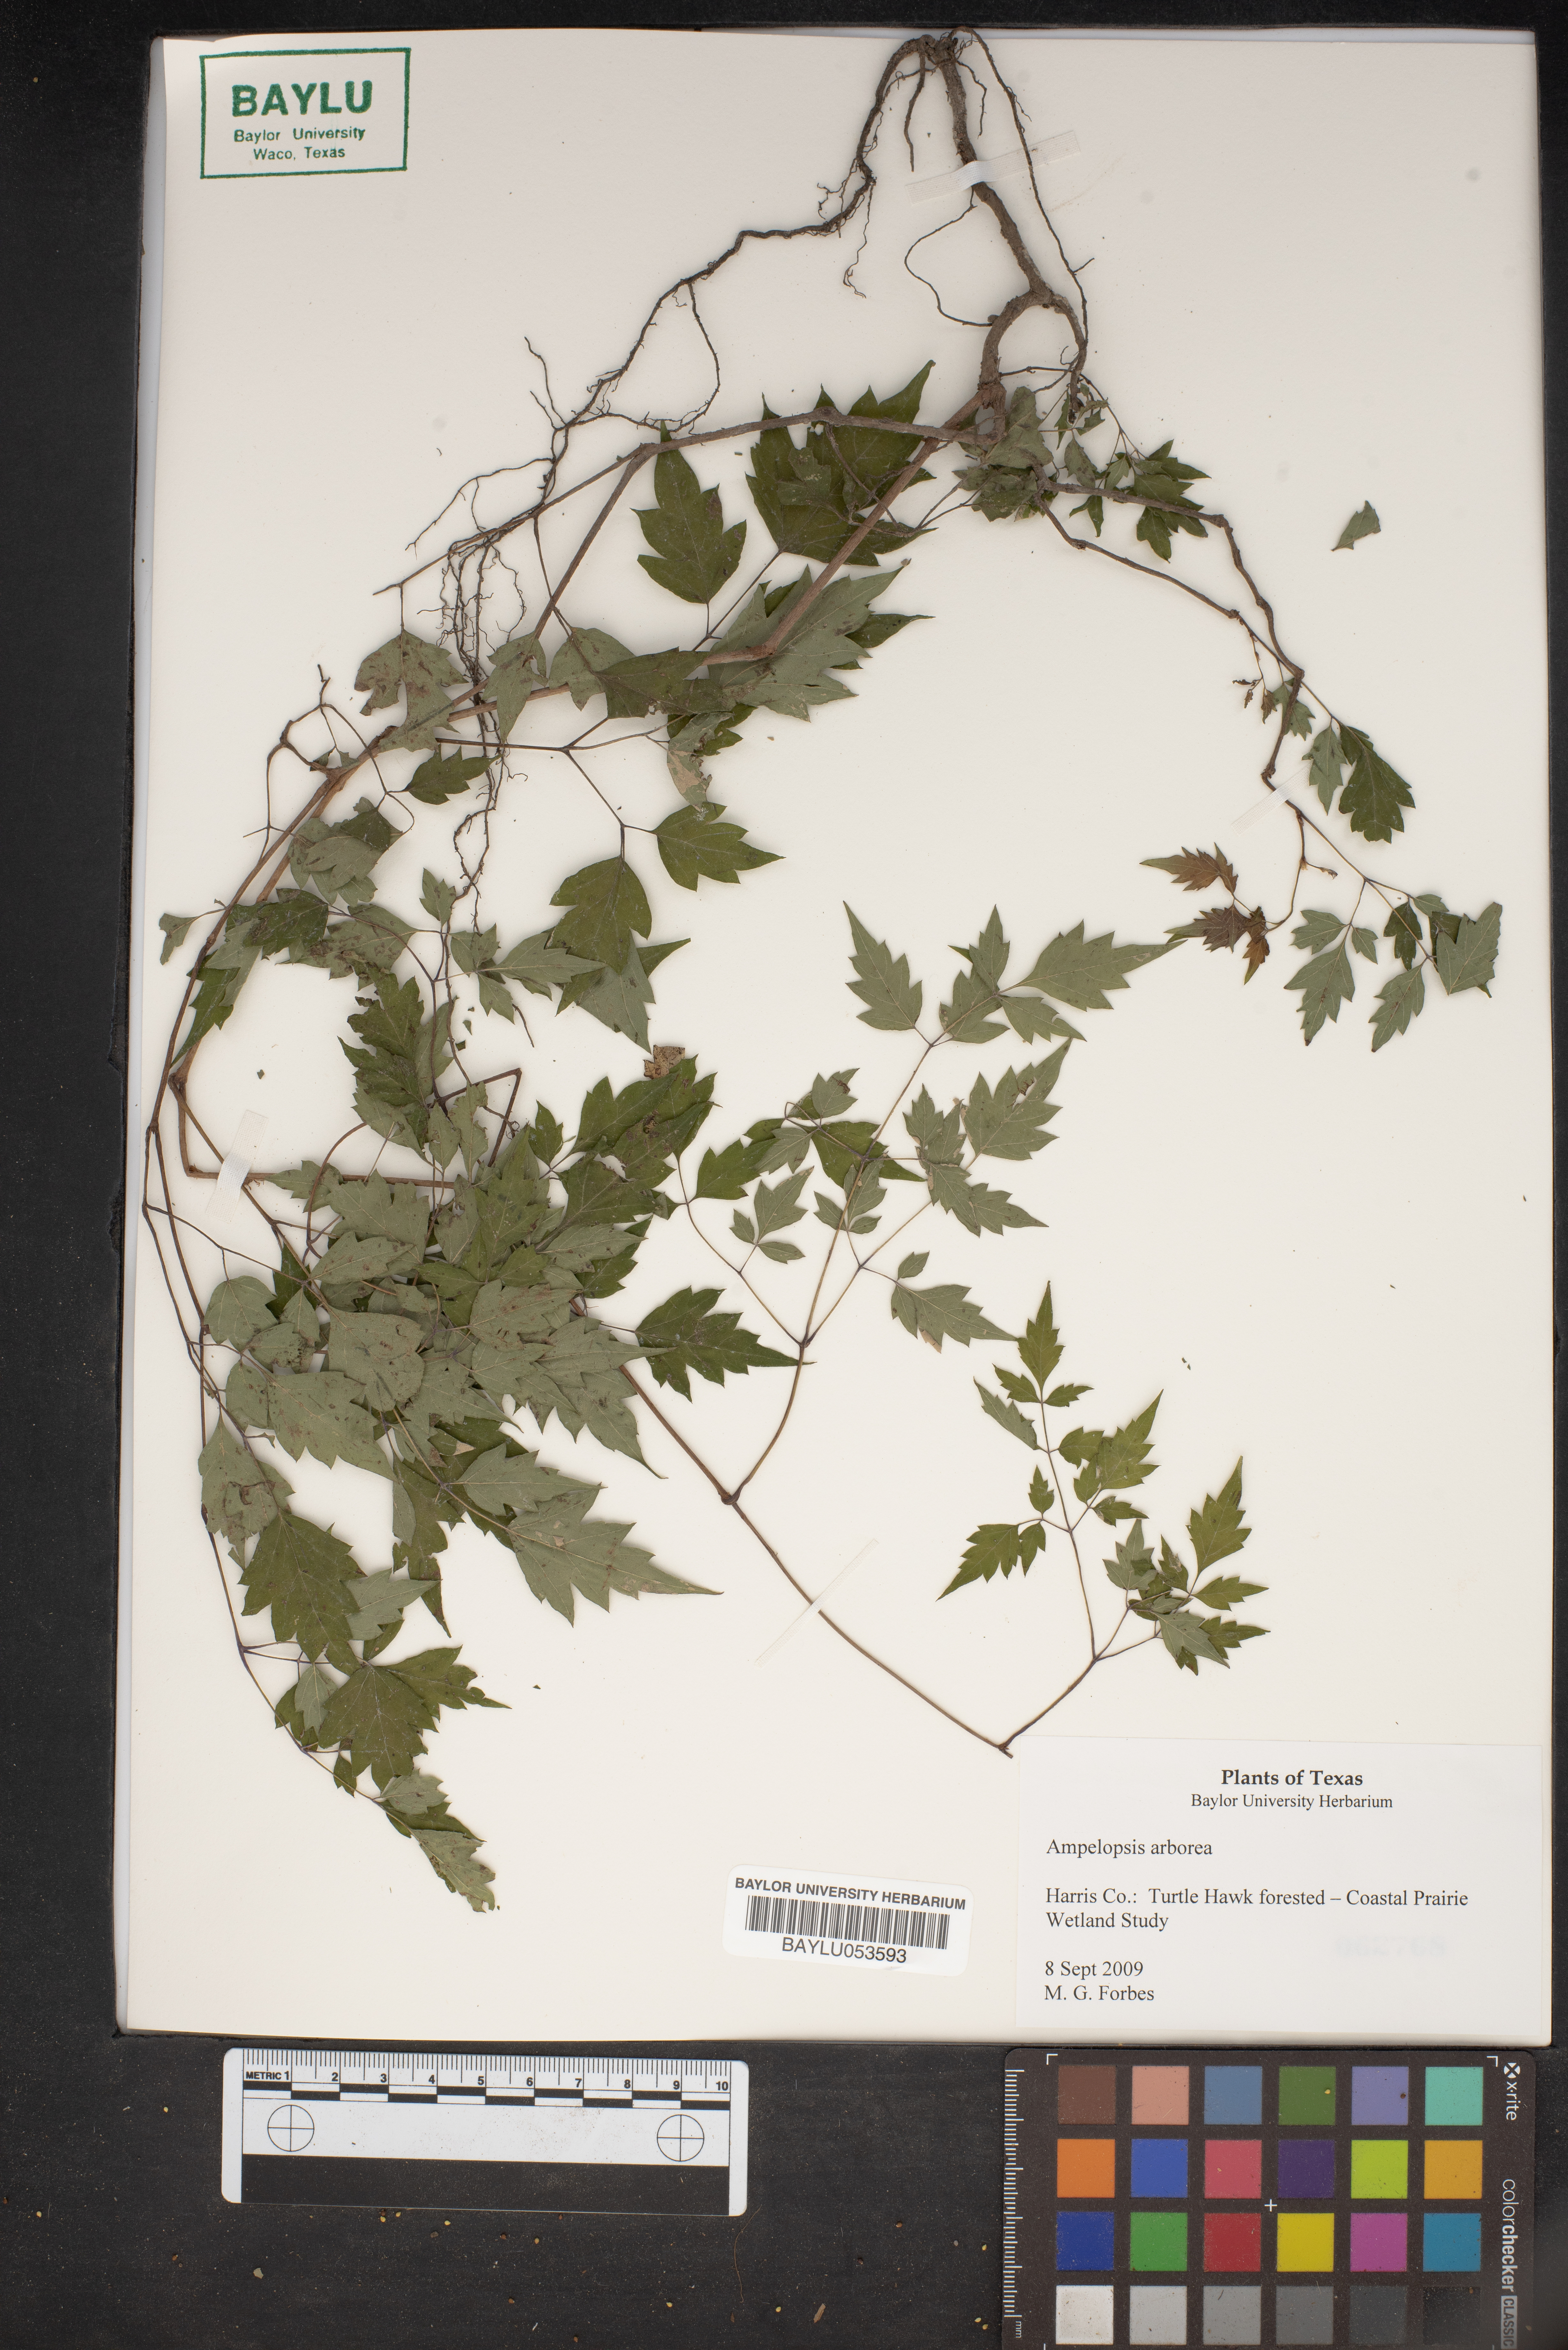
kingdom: Plantae
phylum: Tracheophyta
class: Magnoliopsida
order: Vitales
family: Vitaceae
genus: Nekemias
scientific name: Nekemias arborea
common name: Peppervine
